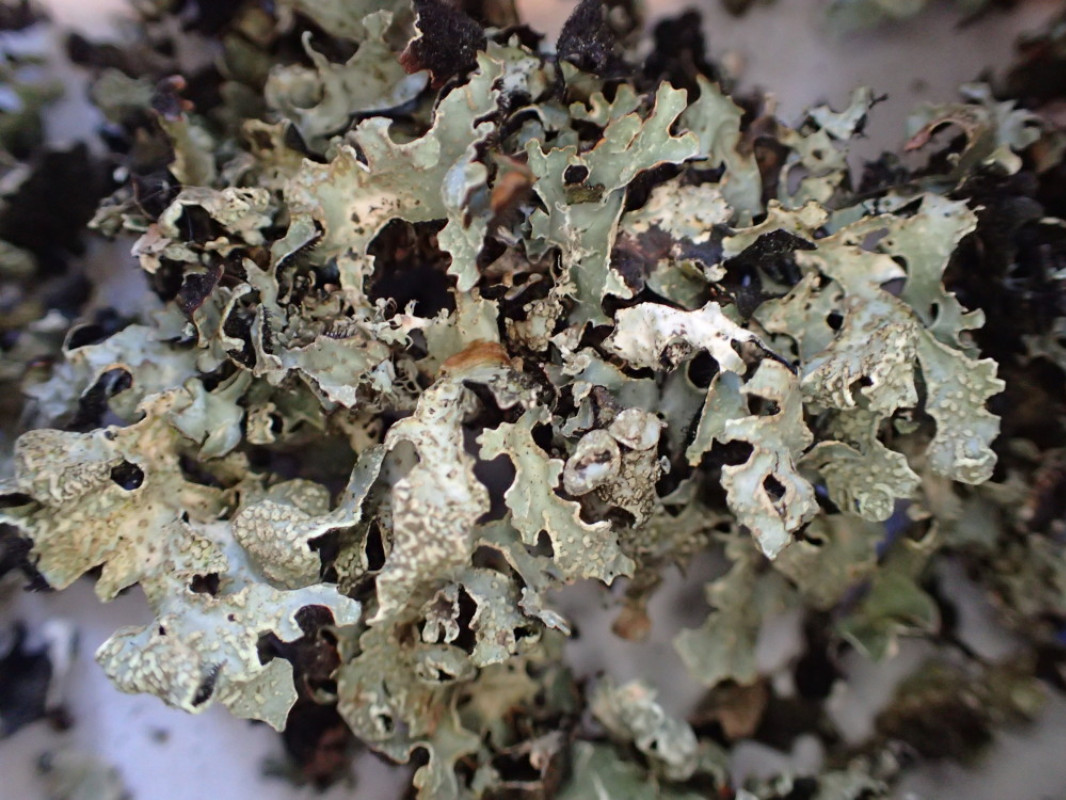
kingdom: Fungi
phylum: Ascomycota
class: Lecanoromycetes
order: Lecanorales
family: Parmeliaceae
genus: Parmelia
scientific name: Parmelia sulcata
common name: rynket skållav
